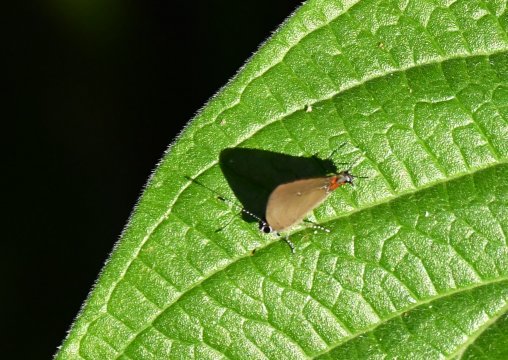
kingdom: Animalia
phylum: Arthropoda
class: Insecta
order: Lepidoptera
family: Lycaenidae
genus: Thecla
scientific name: Thecla cerata
